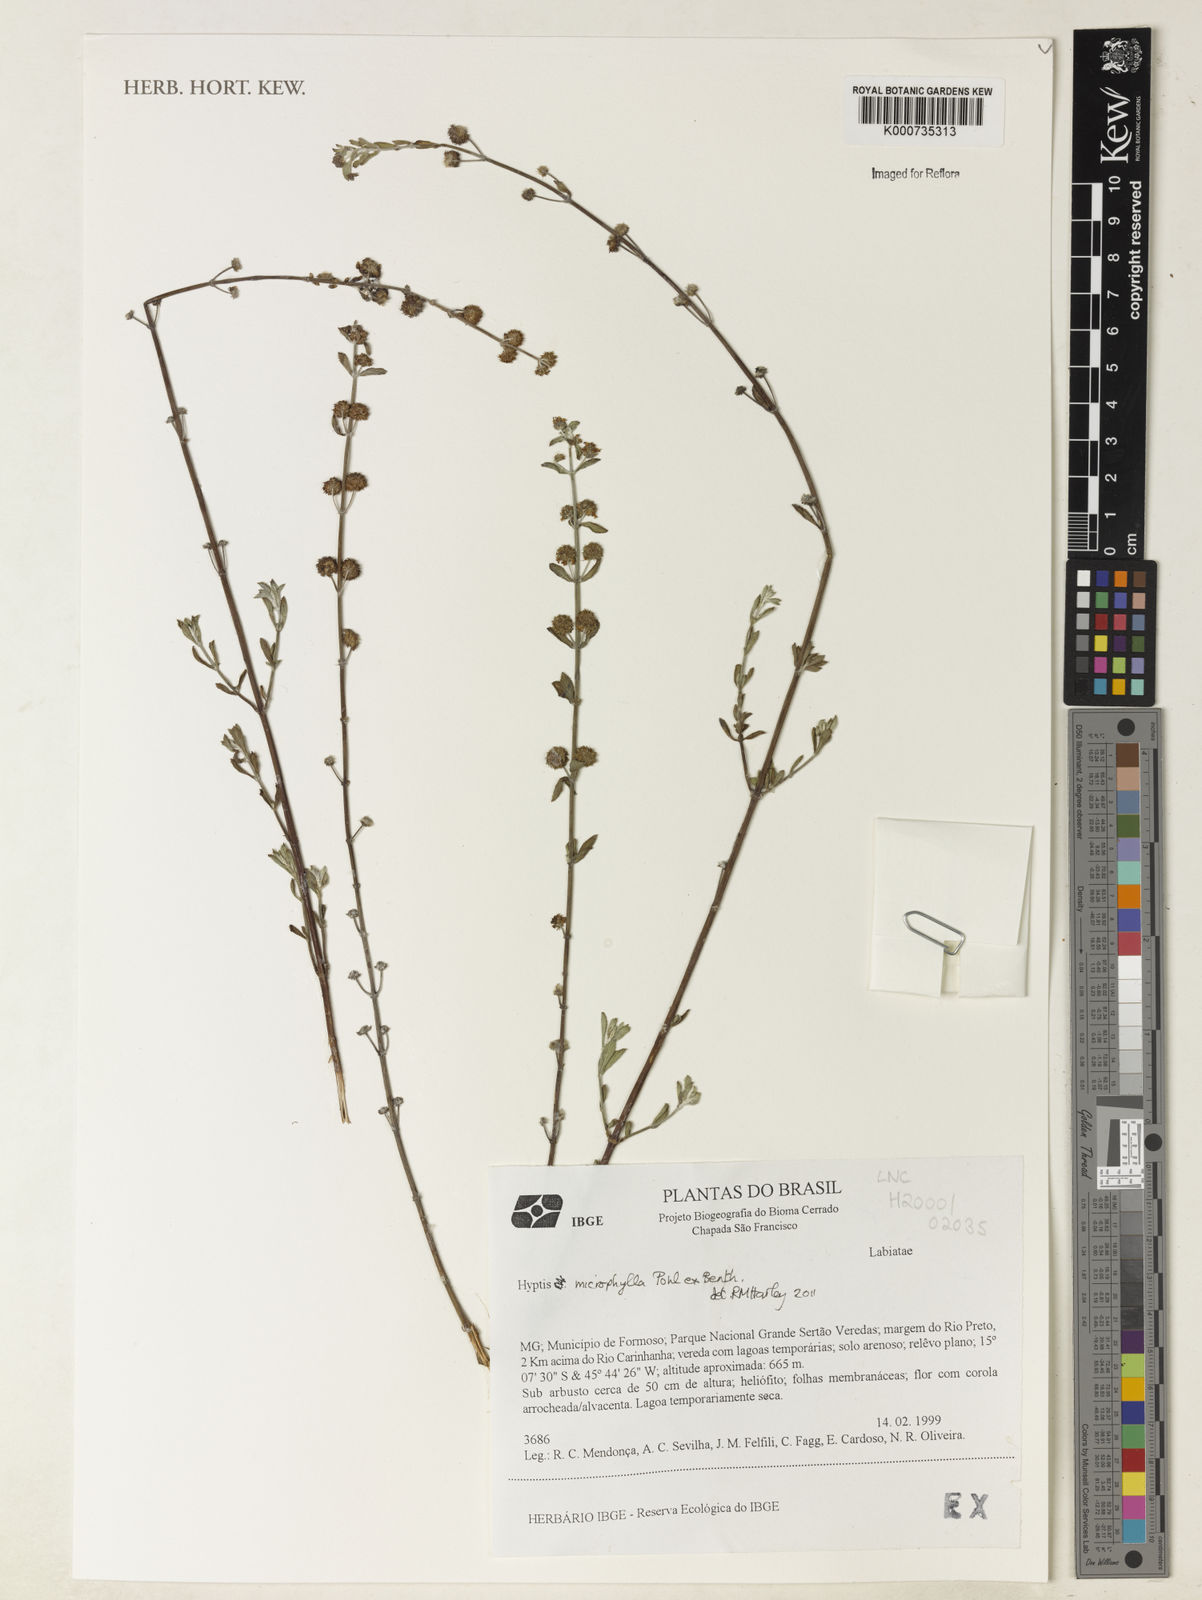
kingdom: Plantae
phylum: Tracheophyta
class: Magnoliopsida
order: Lamiales
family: Lamiaceae
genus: Hyptis
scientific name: Hyptis microphylla
